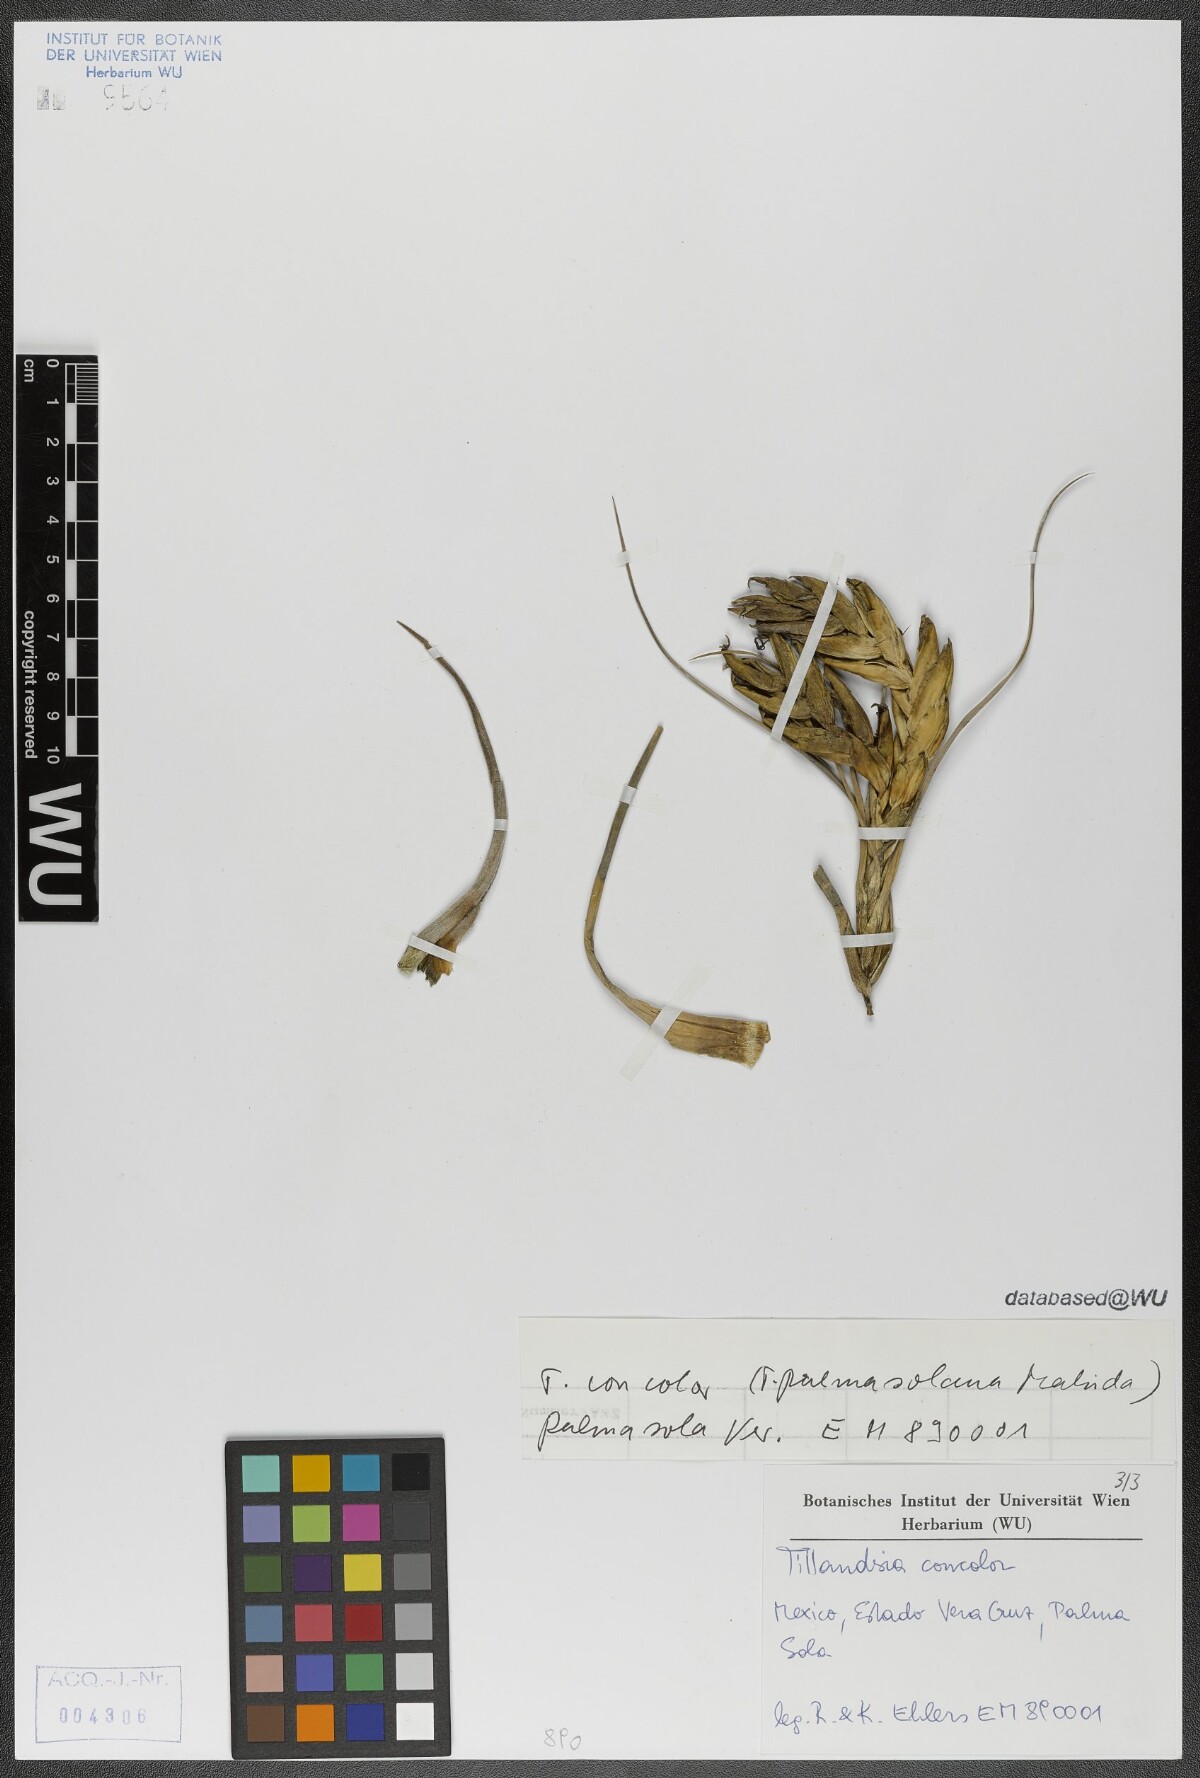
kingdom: Plantae
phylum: Tracheophyta
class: Liliopsida
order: Poales
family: Bromeliaceae
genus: Tillandsia
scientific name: Tillandsia concolor
